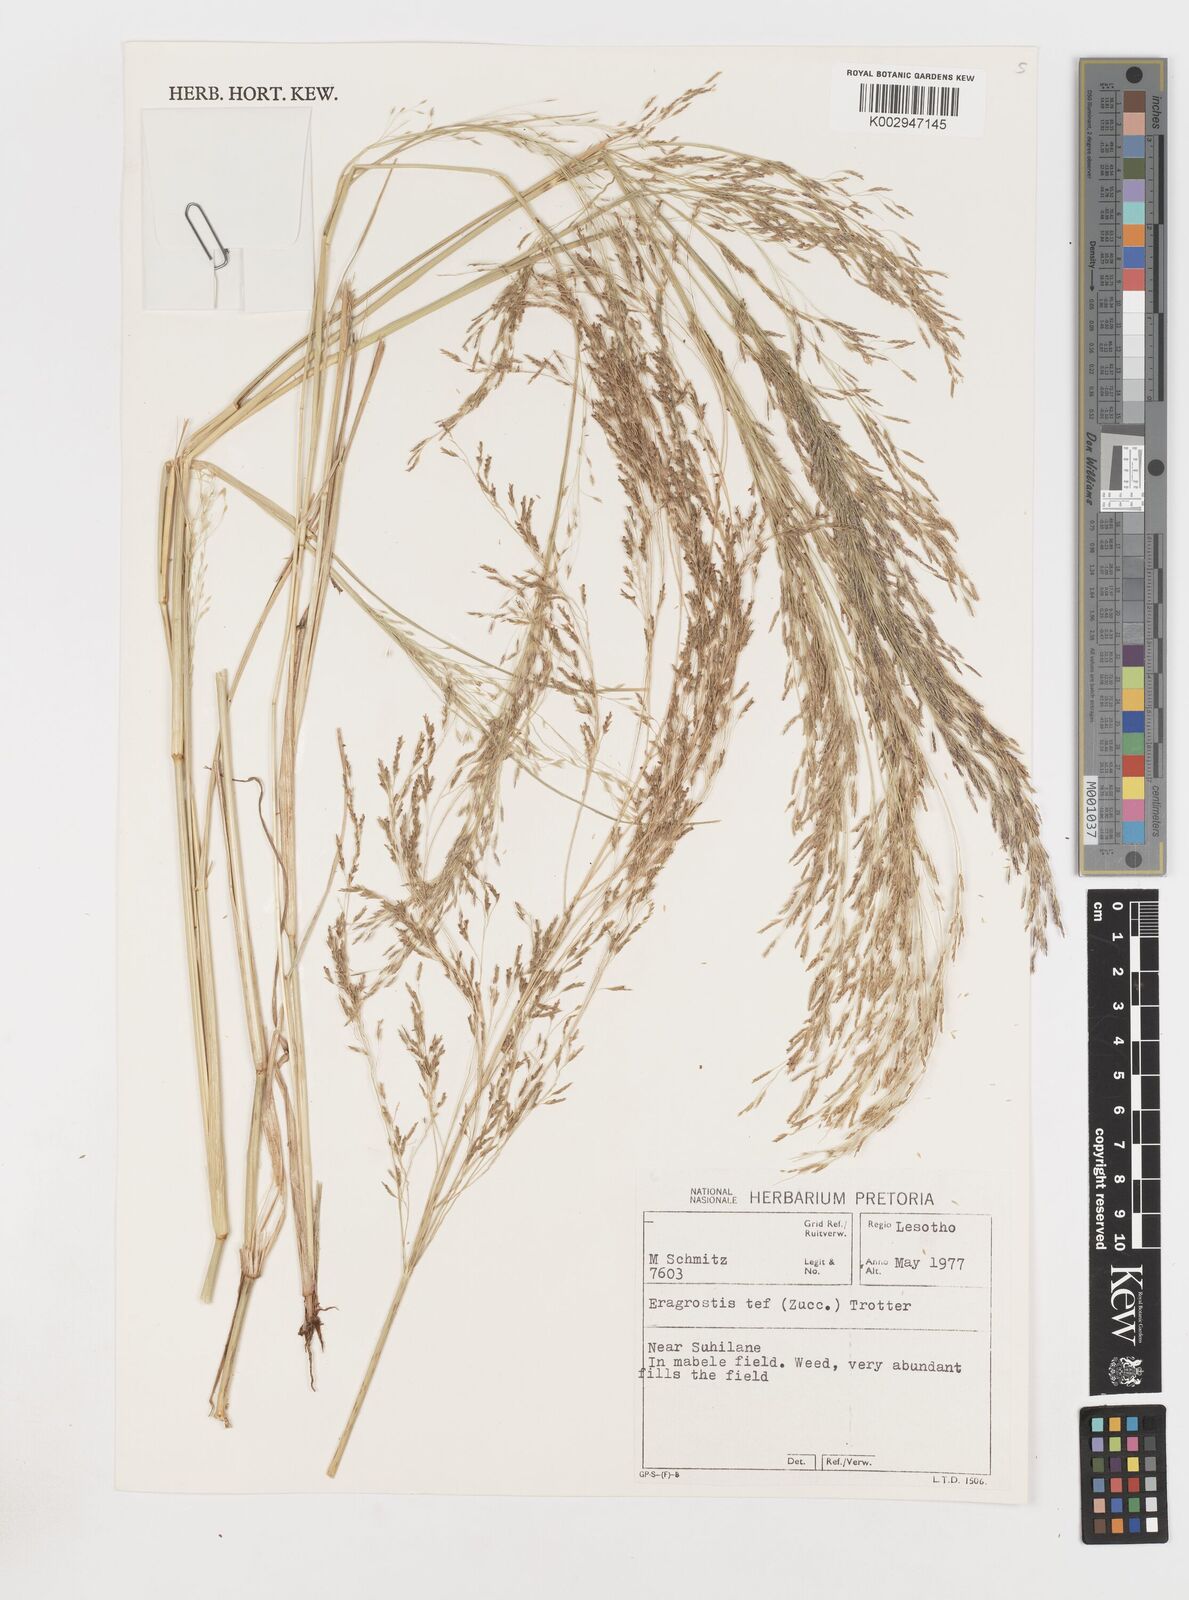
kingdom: Plantae
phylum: Tracheophyta
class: Liliopsida
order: Poales
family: Poaceae
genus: Eragrostis
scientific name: Eragrostis tef
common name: Teff
